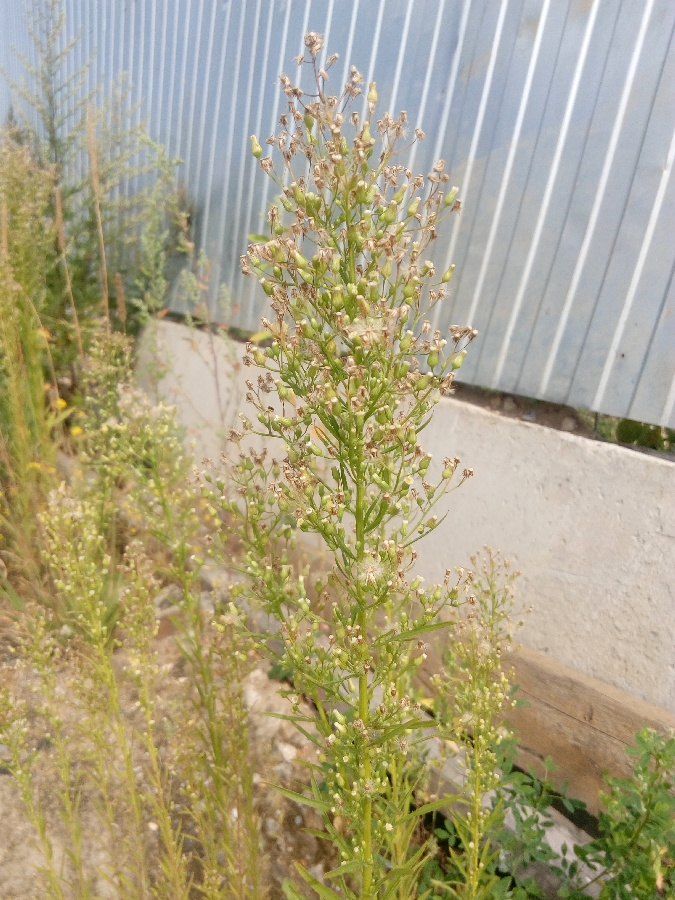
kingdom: Plantae
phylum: Tracheophyta
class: Magnoliopsida
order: Asterales
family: Asteraceae
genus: Erigeron
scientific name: Erigeron canadensis
